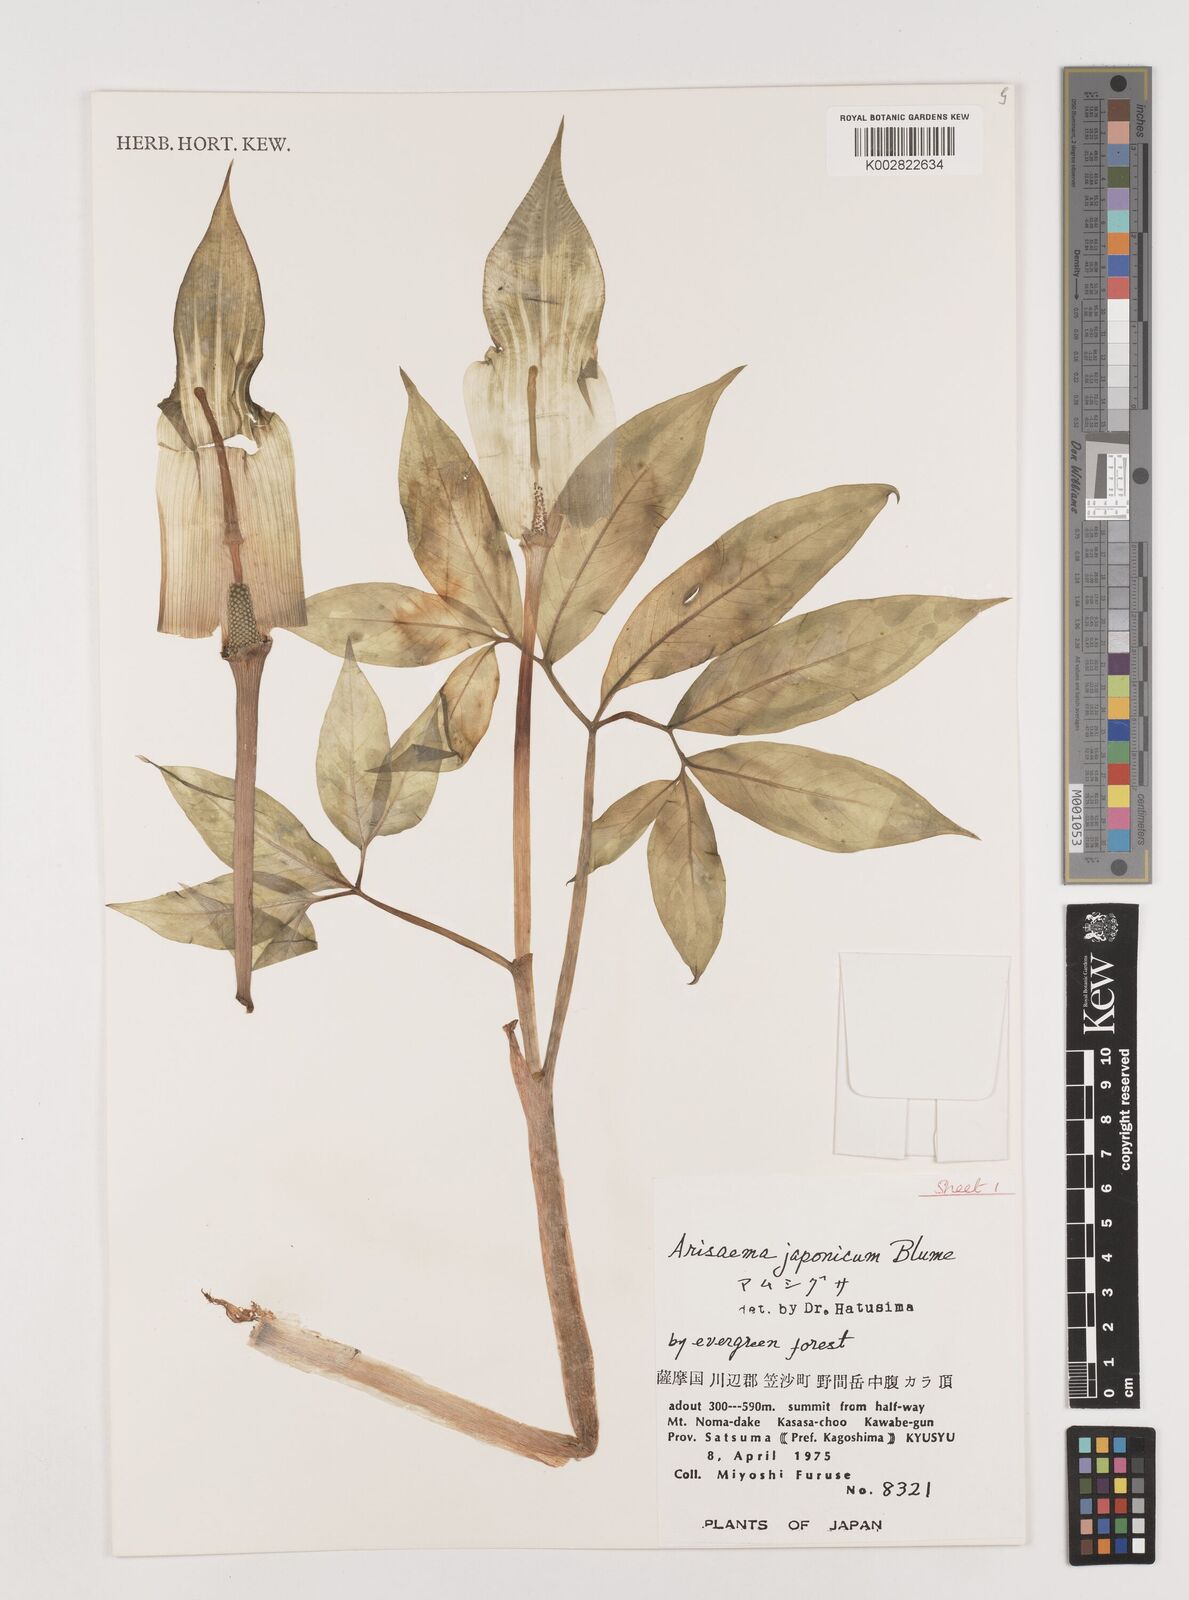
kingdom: Plantae
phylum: Tracheophyta
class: Liliopsida
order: Alismatales
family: Araceae
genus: Arisaema
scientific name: Arisaema serratum
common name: Japanese arisaema
